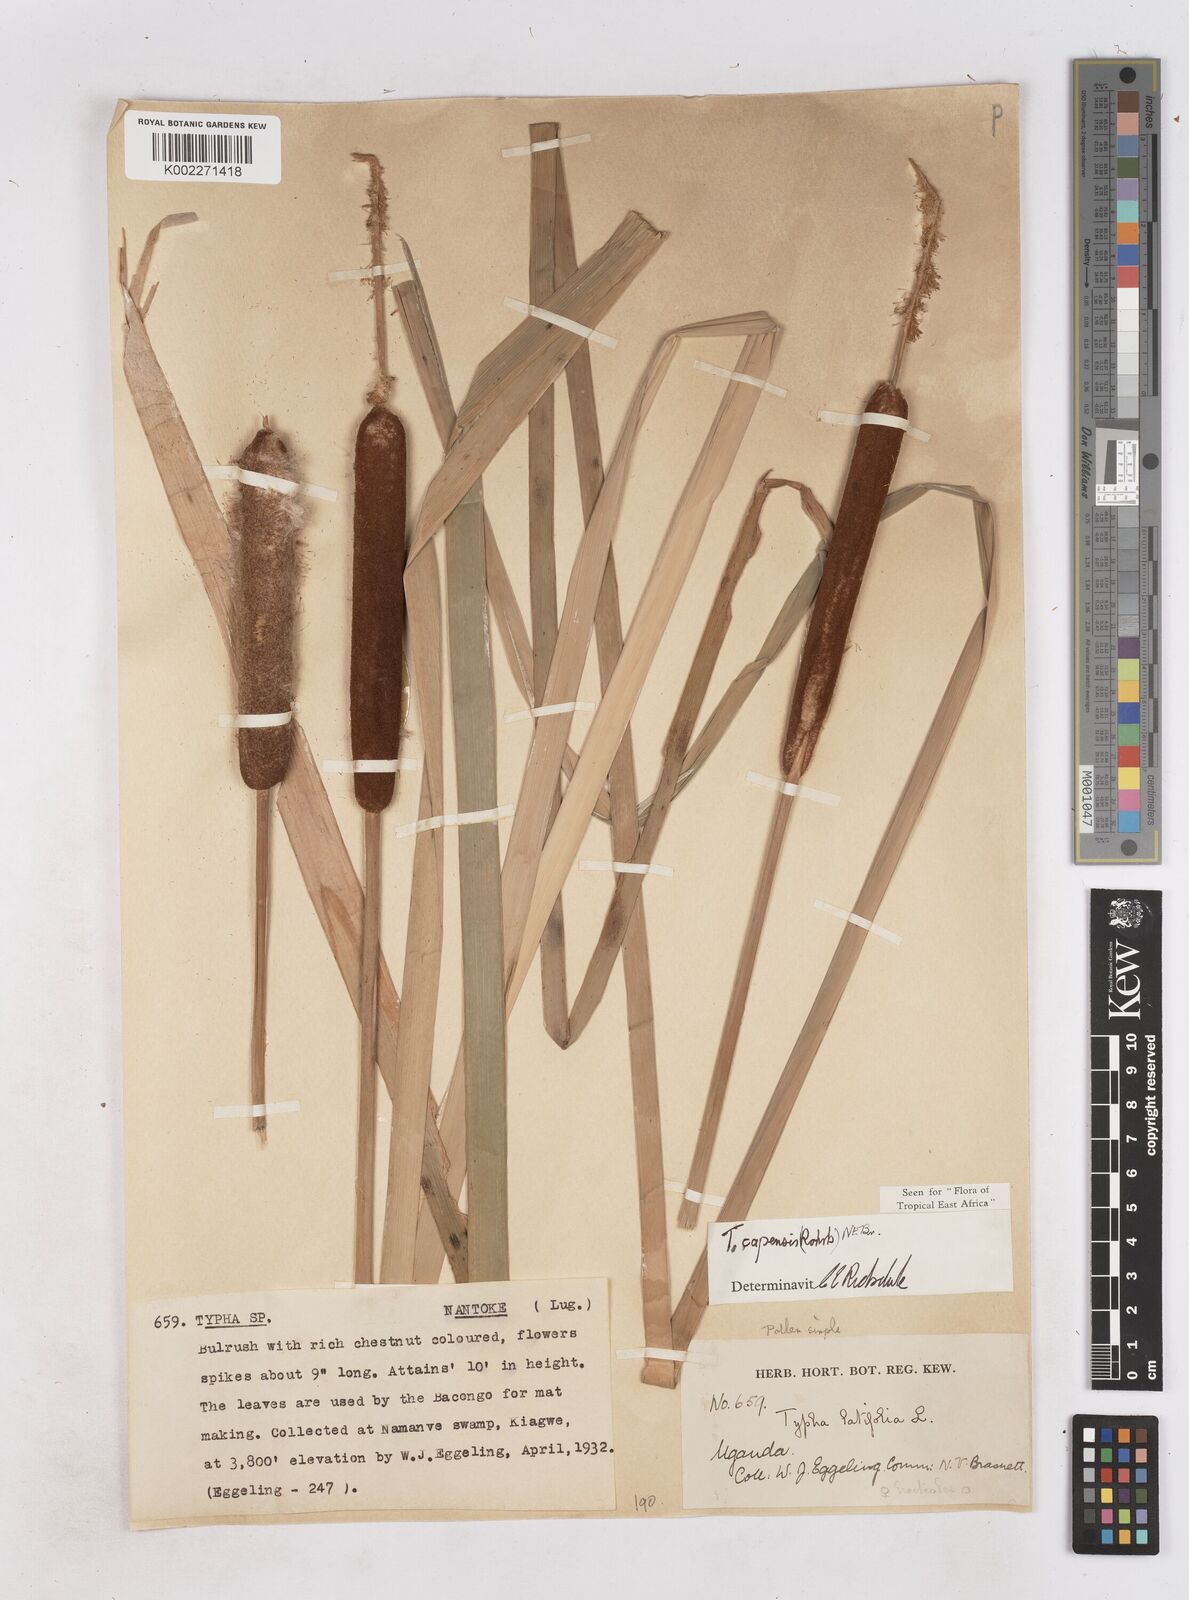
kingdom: Plantae
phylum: Tracheophyta
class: Liliopsida
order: Poales
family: Typhaceae
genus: Typha
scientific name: Typha capensis
